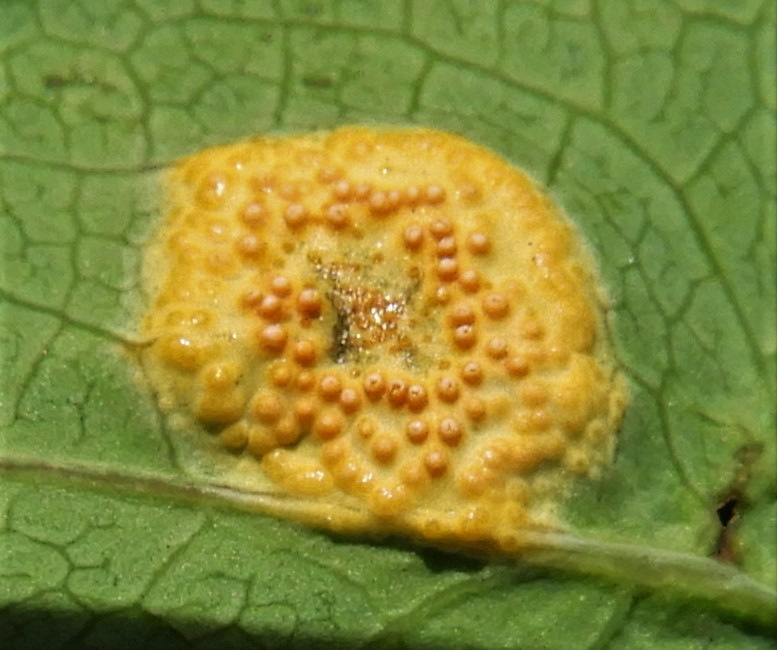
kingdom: Fungi
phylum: Basidiomycota
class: Pucciniomycetes
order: Pucciniales
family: Pucciniaceae
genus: Puccinia
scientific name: Puccinia festucae
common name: gedeblad-tvecellerust
